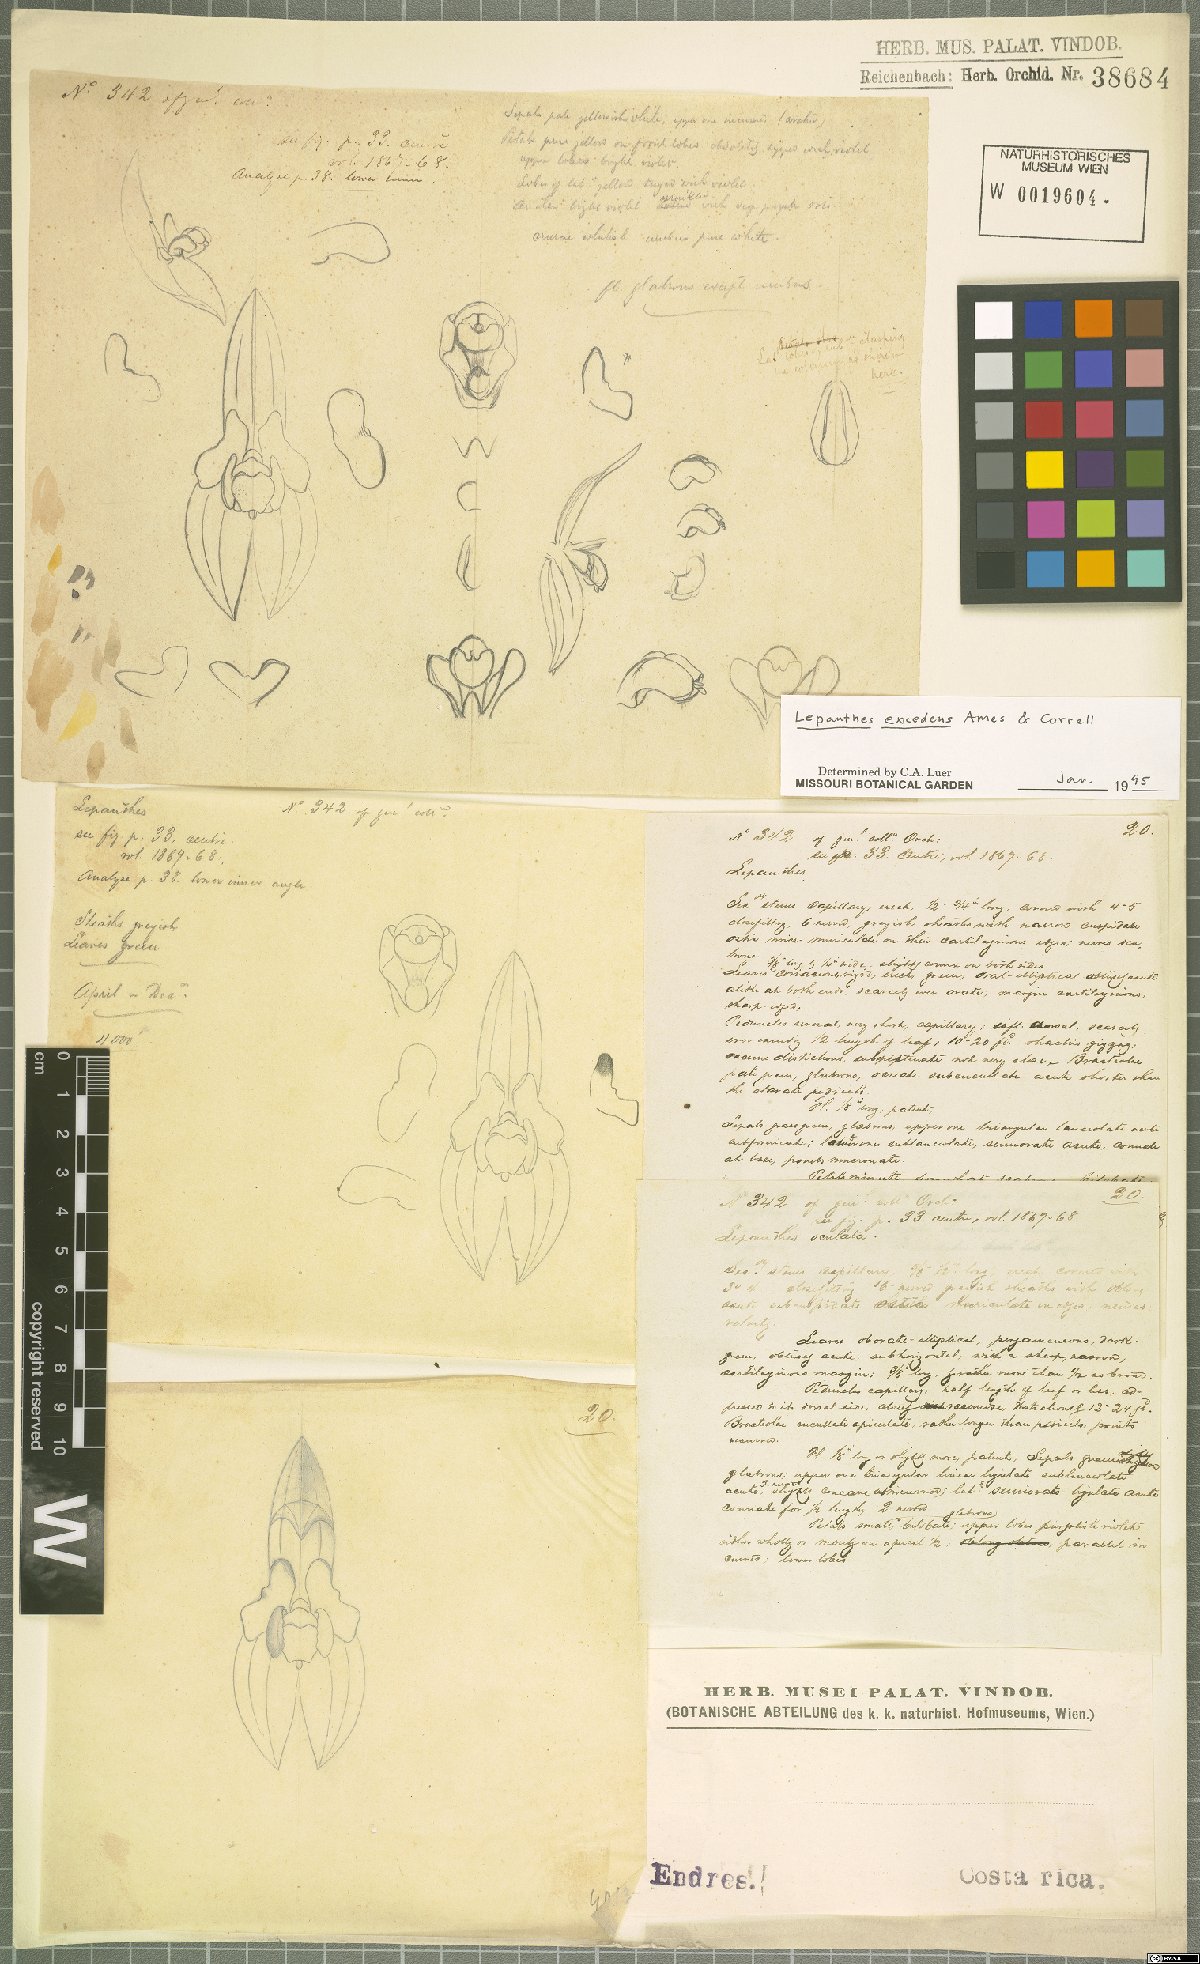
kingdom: Plantae
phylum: Tracheophyta
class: Liliopsida
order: Asparagales
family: Orchidaceae
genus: Lepanthes
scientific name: Lepanthes excedens
